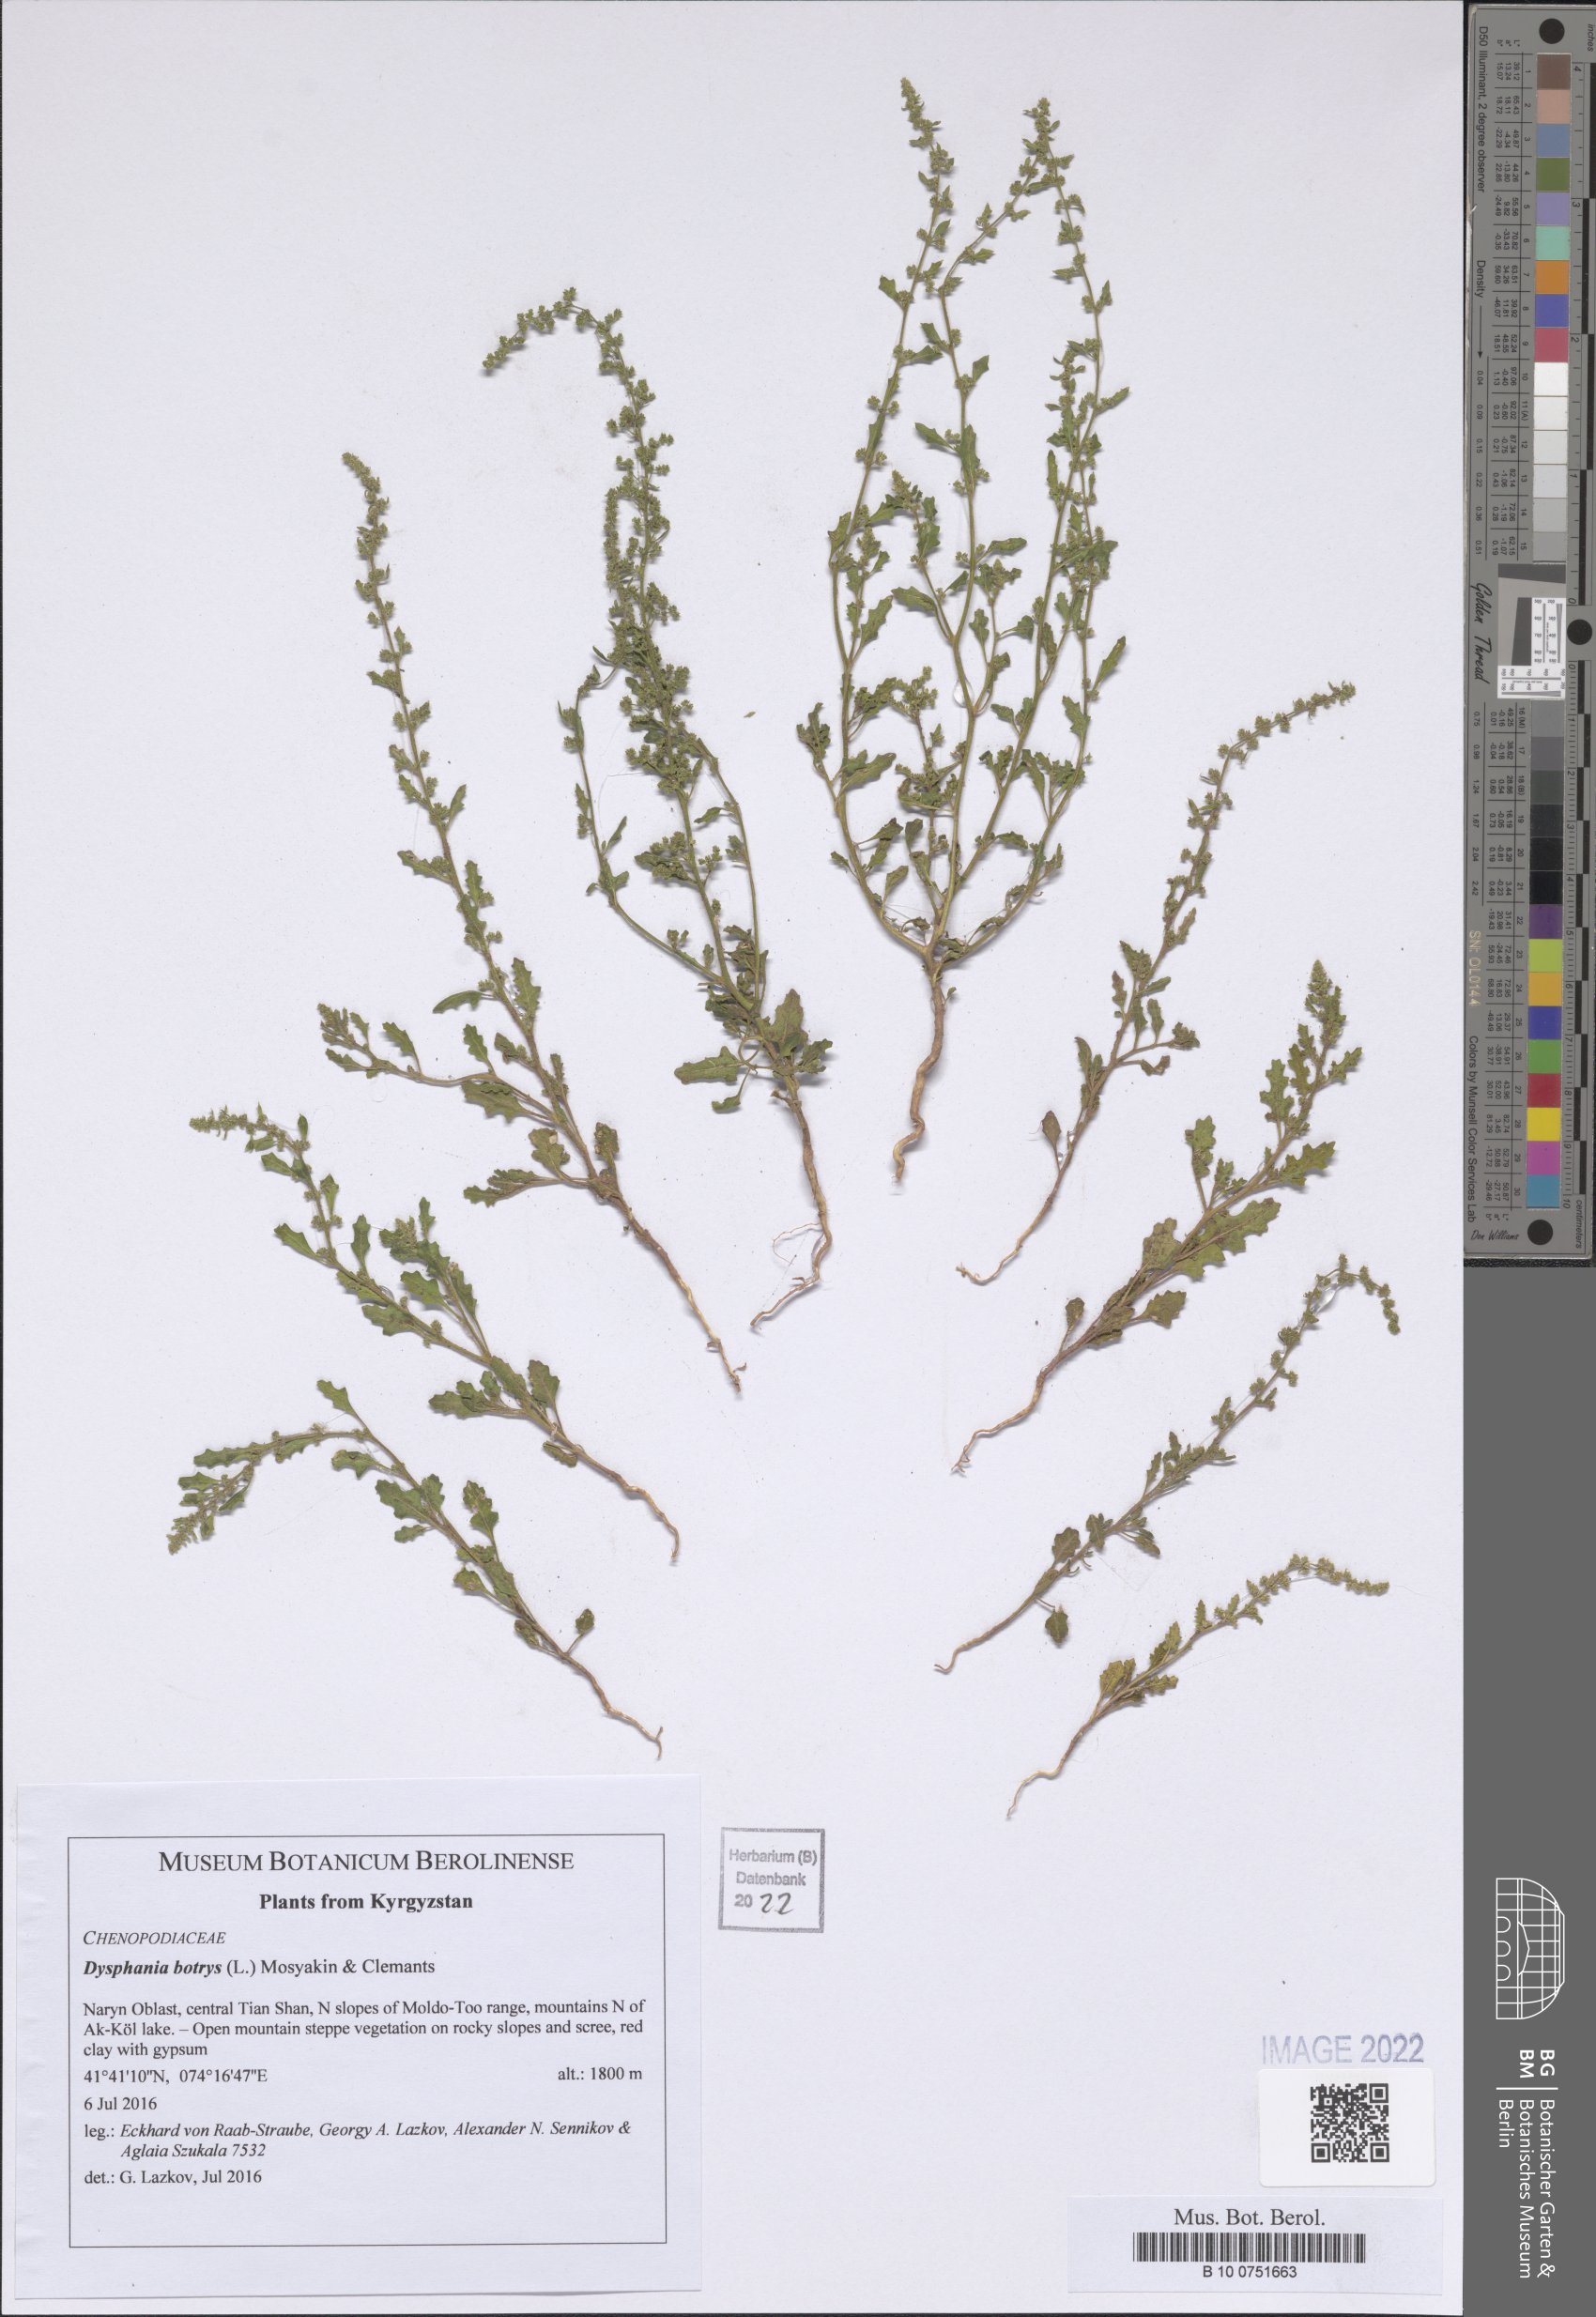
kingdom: Plantae
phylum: Tracheophyta
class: Magnoliopsida
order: Caryophyllales
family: Amaranthaceae
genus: Dysphania
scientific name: Dysphania botrys
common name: Feather-geranium
